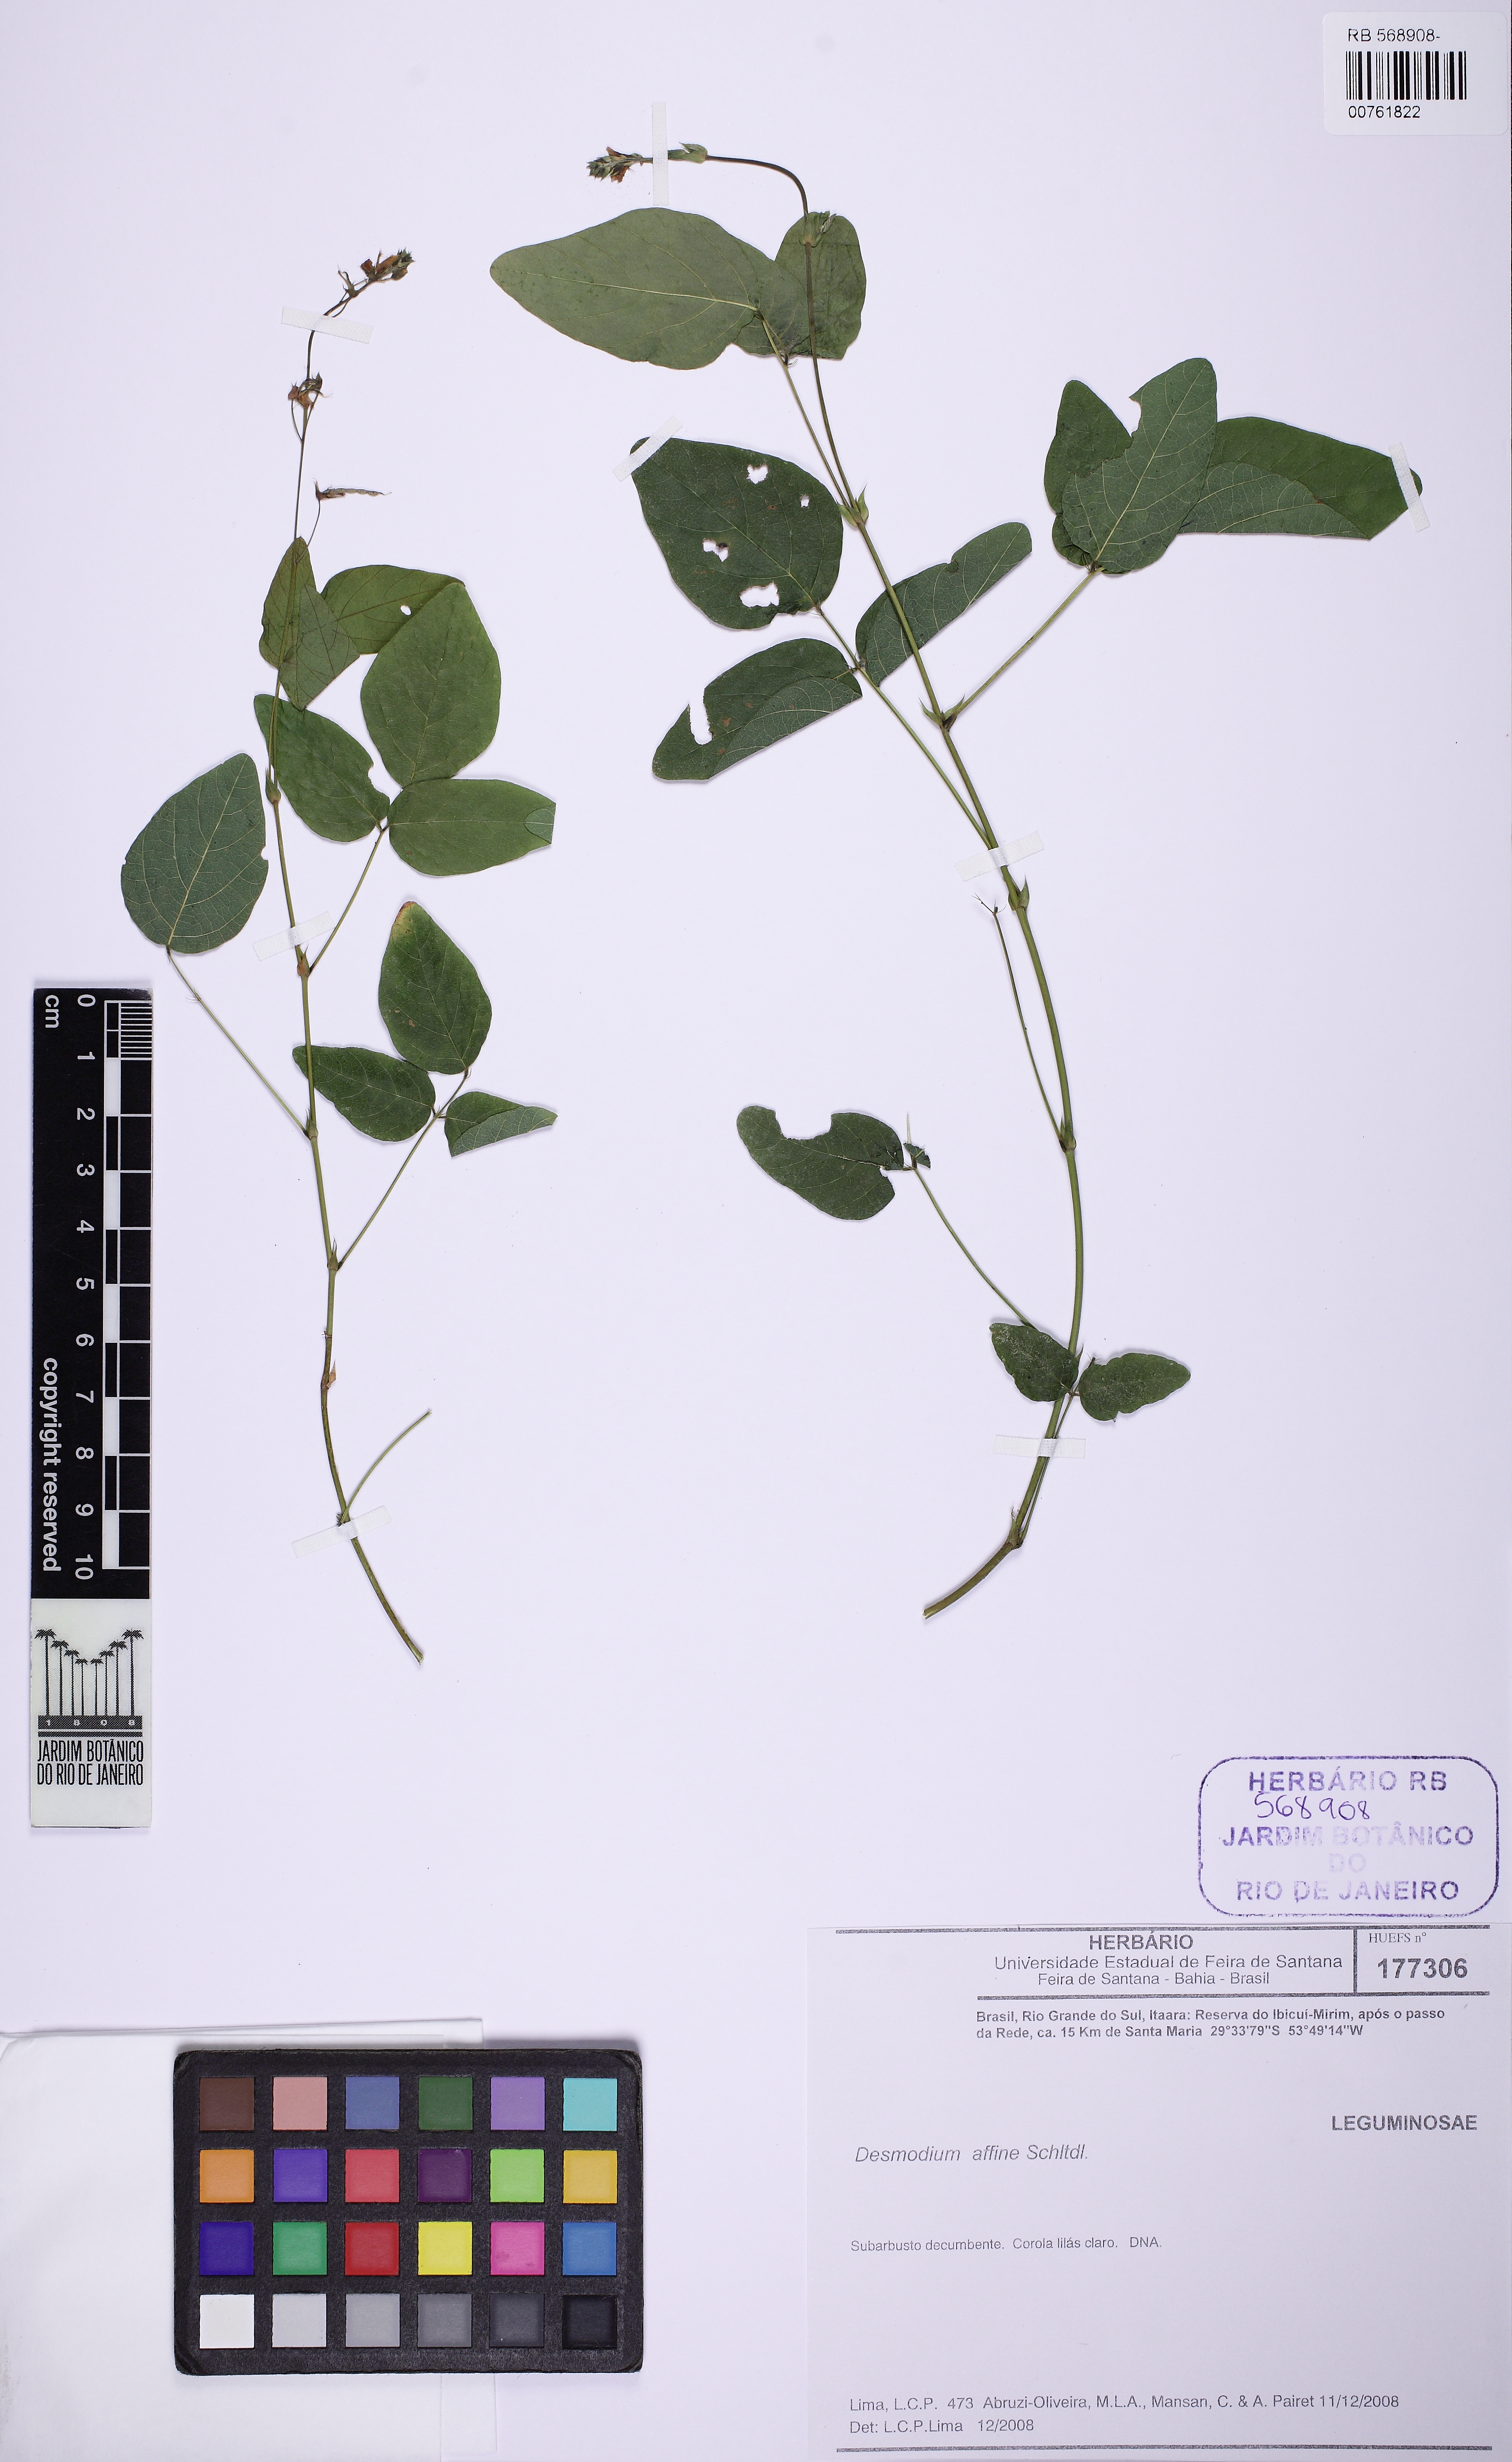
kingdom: Plantae
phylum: Tracheophyta
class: Magnoliopsida
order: Fabales
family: Fabaceae
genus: Desmodium
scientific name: Desmodium affine
